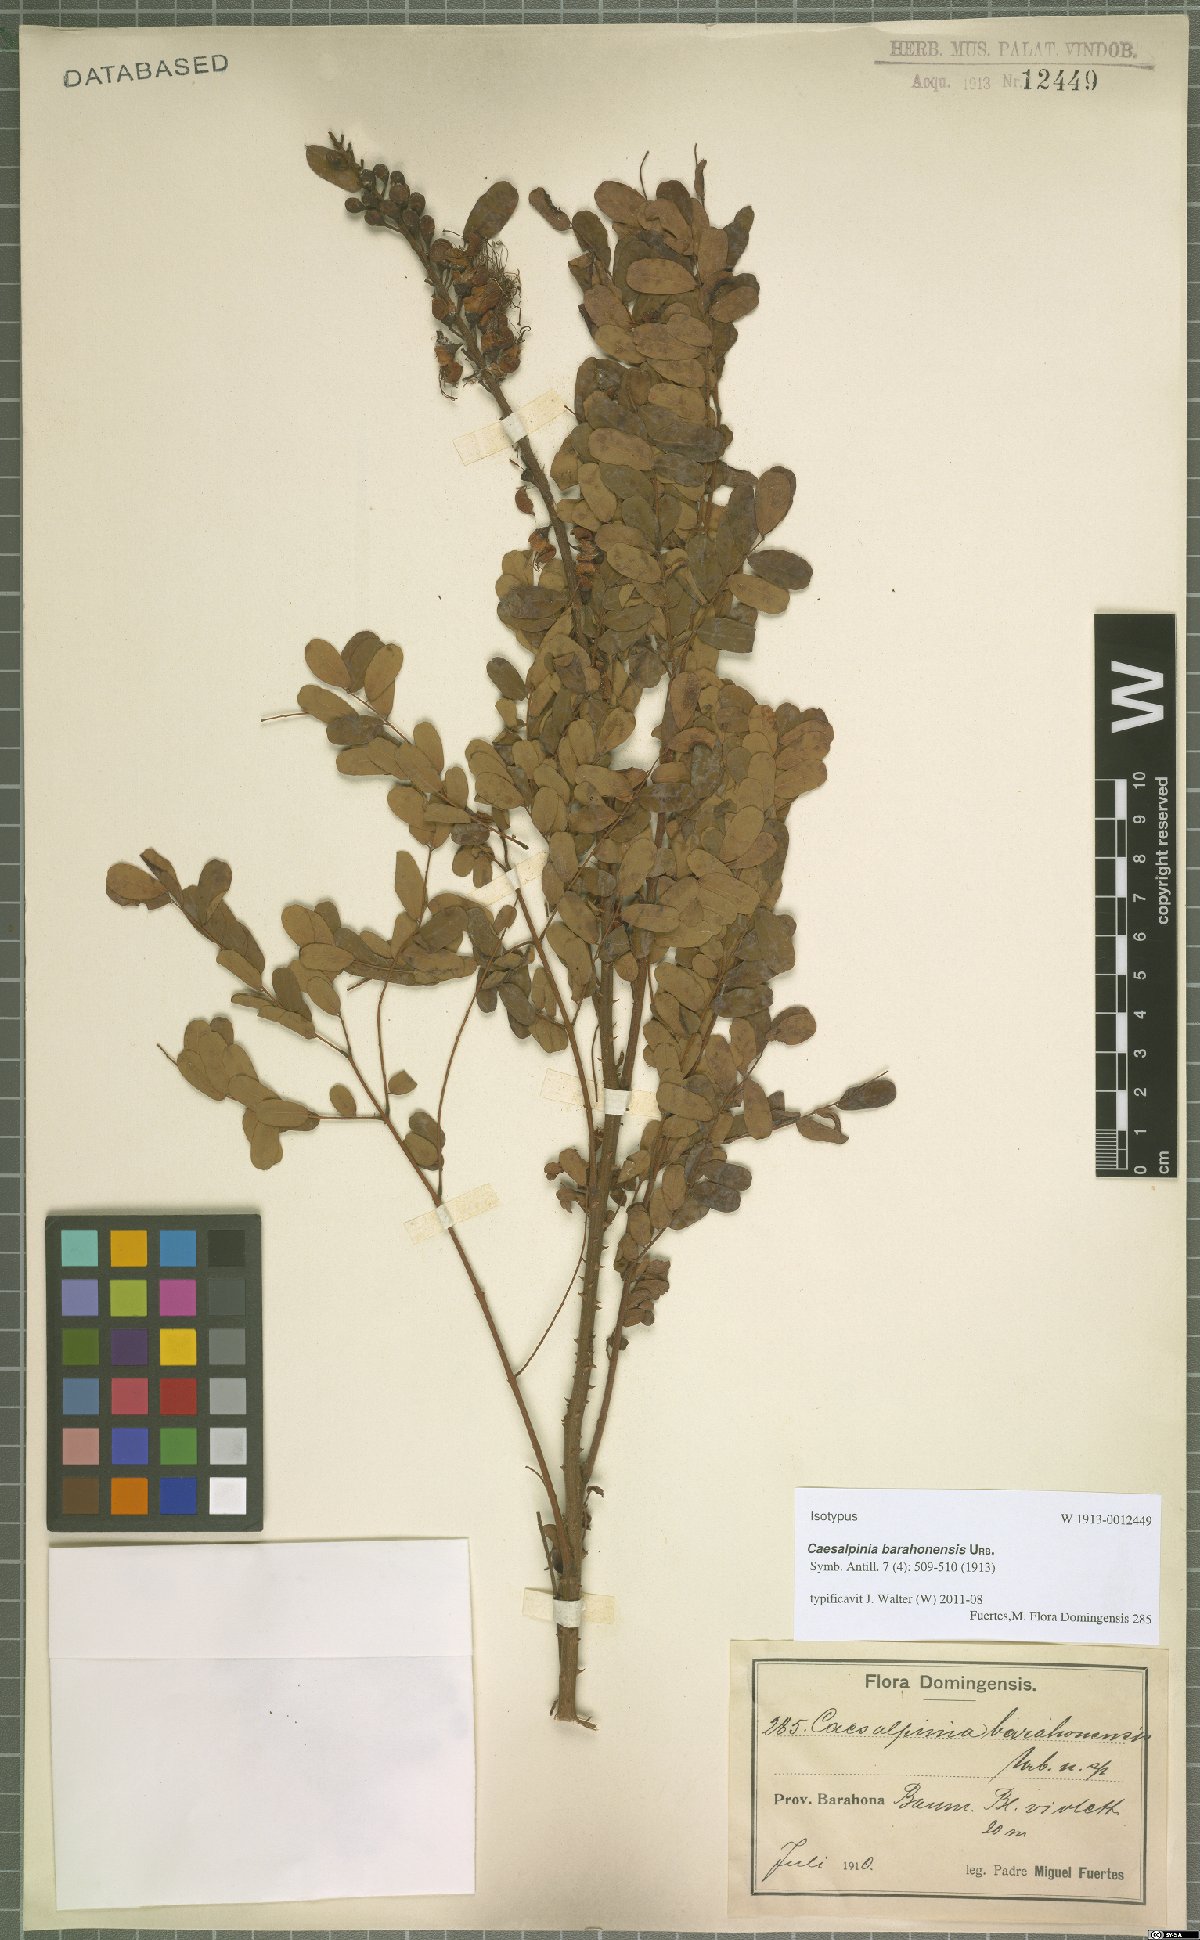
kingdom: Plantae
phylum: Tracheophyta
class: Magnoliopsida
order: Fabales
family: Fabaceae
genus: Caesalpinia
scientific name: Caesalpinia barahonensis
